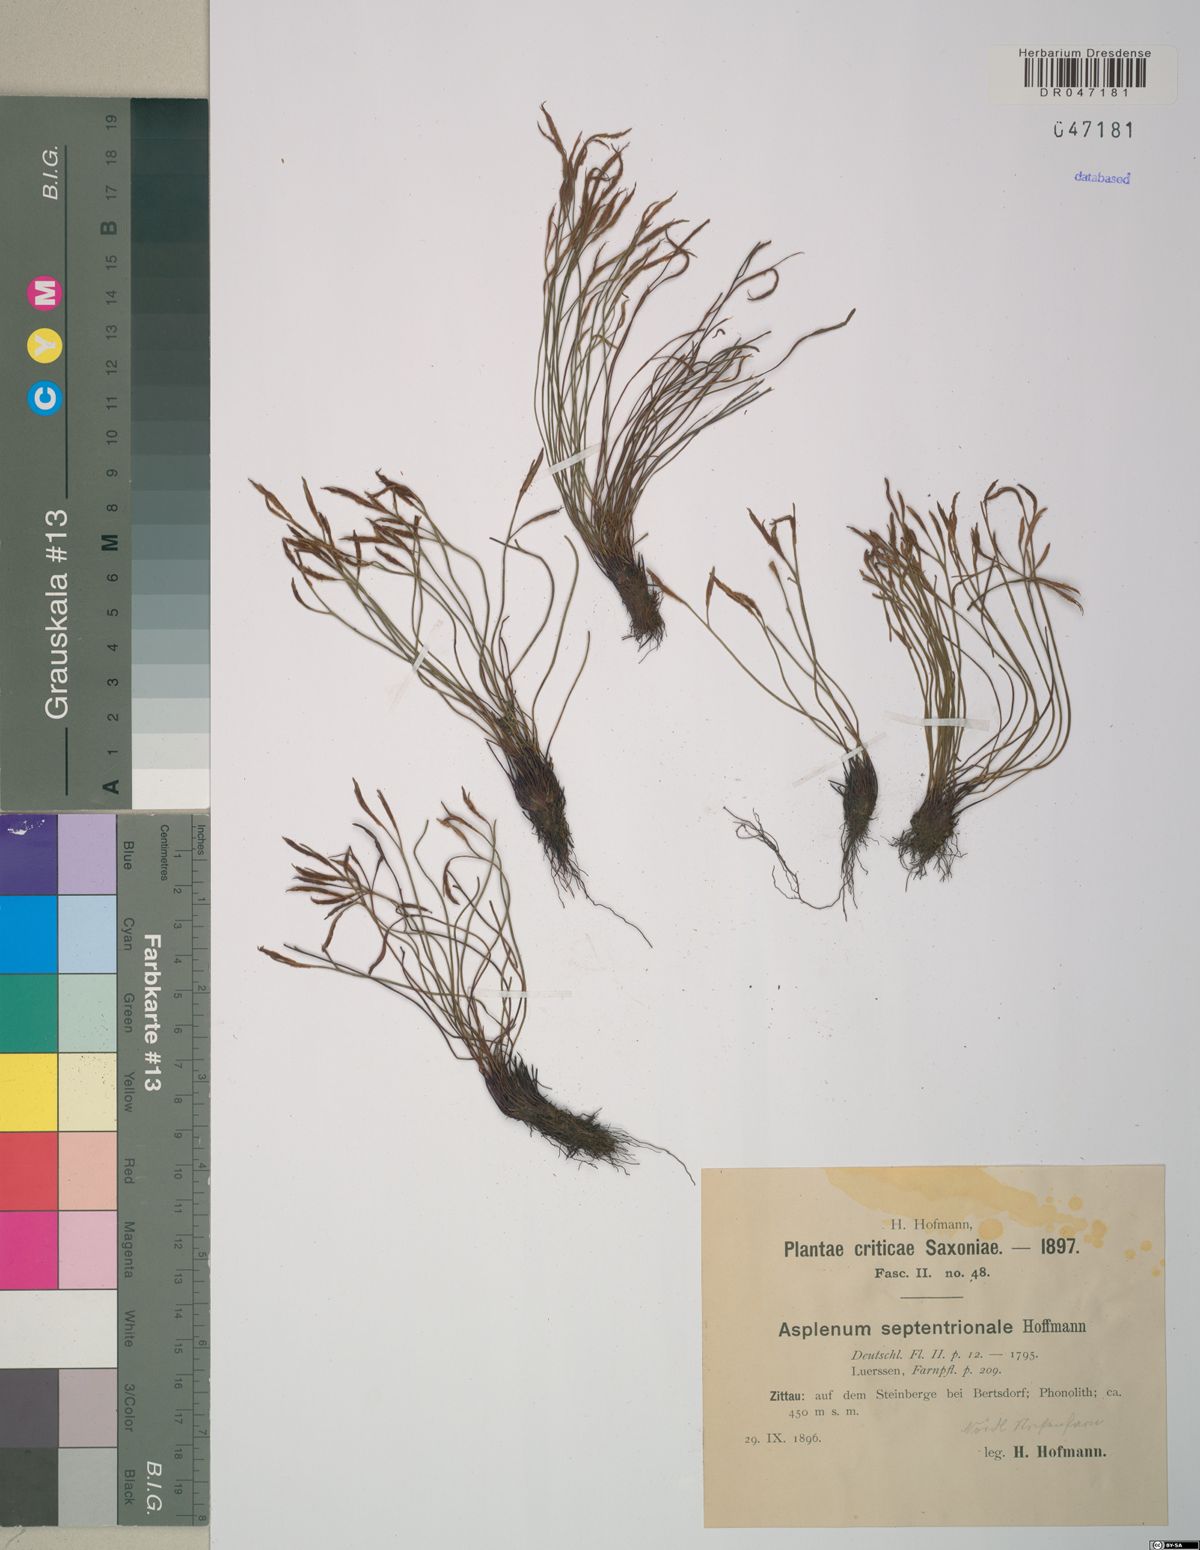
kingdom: Plantae
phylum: Tracheophyta
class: Polypodiopsida
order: Polypodiales
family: Aspleniaceae
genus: Asplenium
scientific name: Asplenium septentrionale
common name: Forked spleenwort
